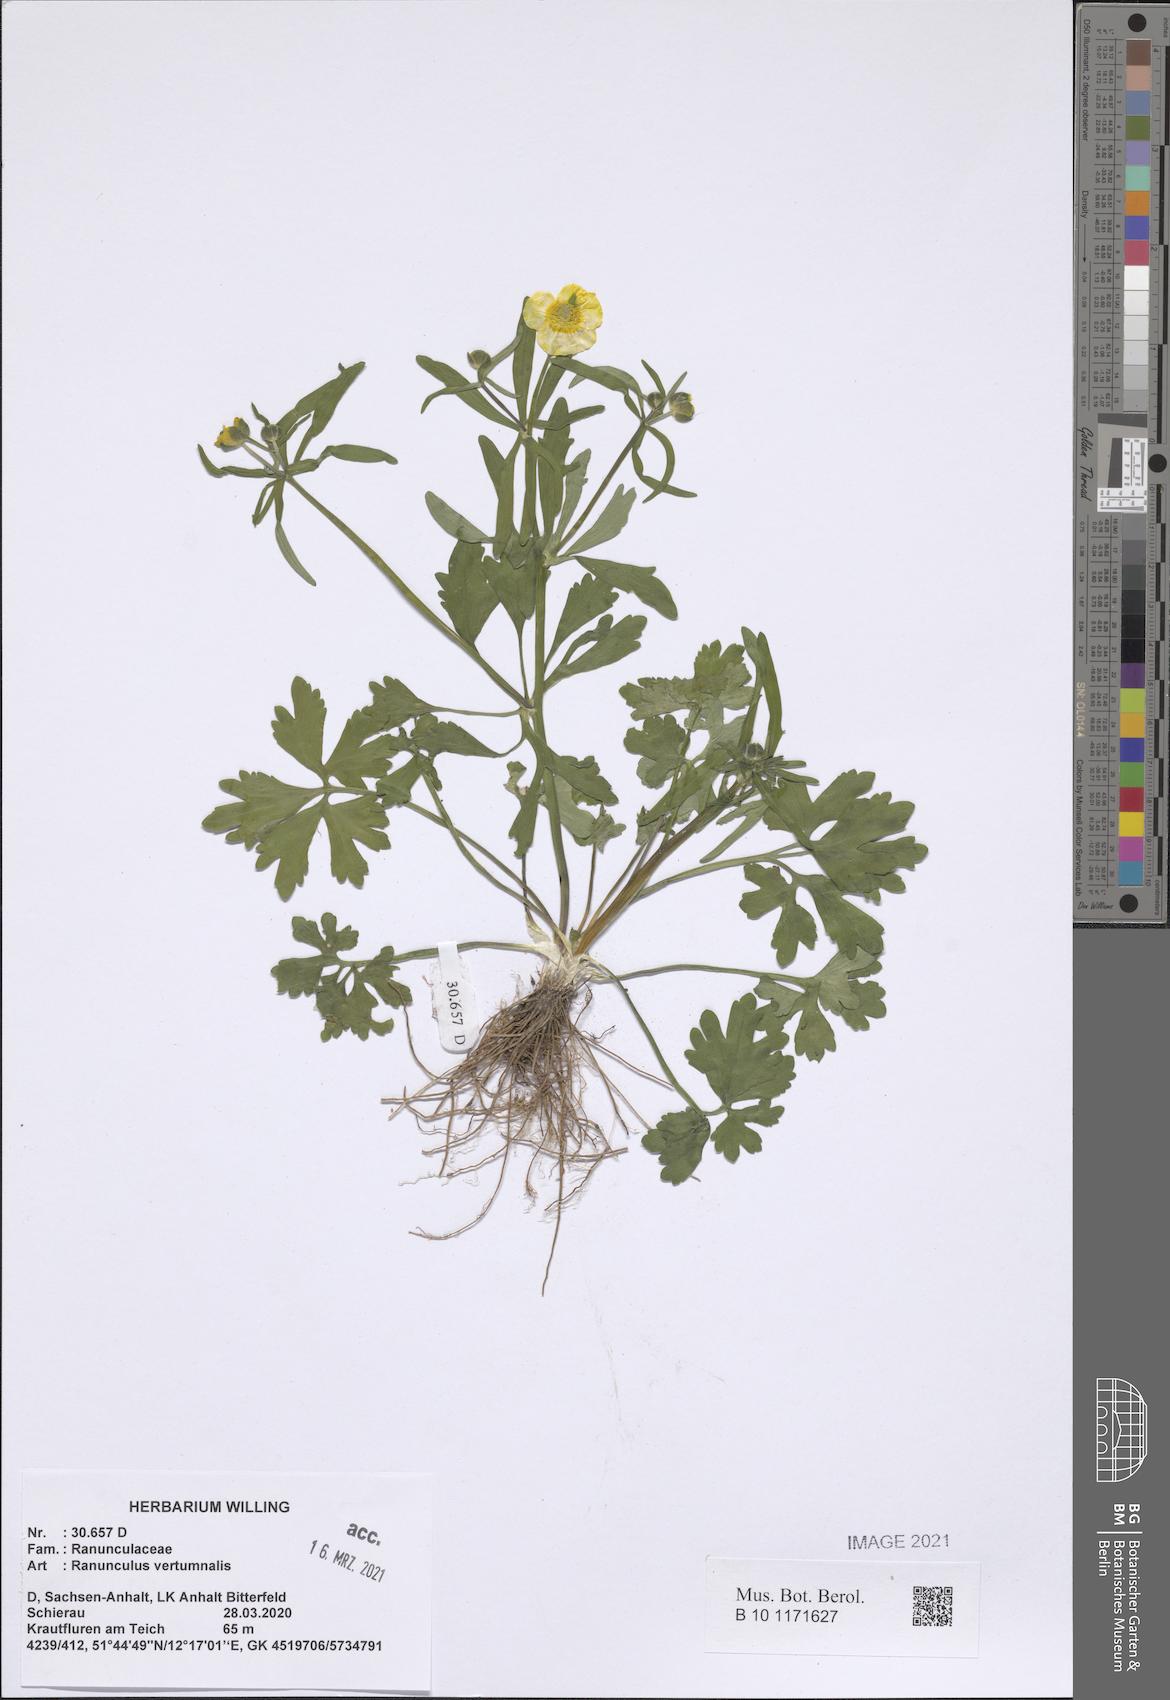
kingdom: Plantae
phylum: Tracheophyta
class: Magnoliopsida
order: Ranunculales
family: Ranunculaceae
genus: Ranunculus
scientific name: Ranunculus vertumnalis
